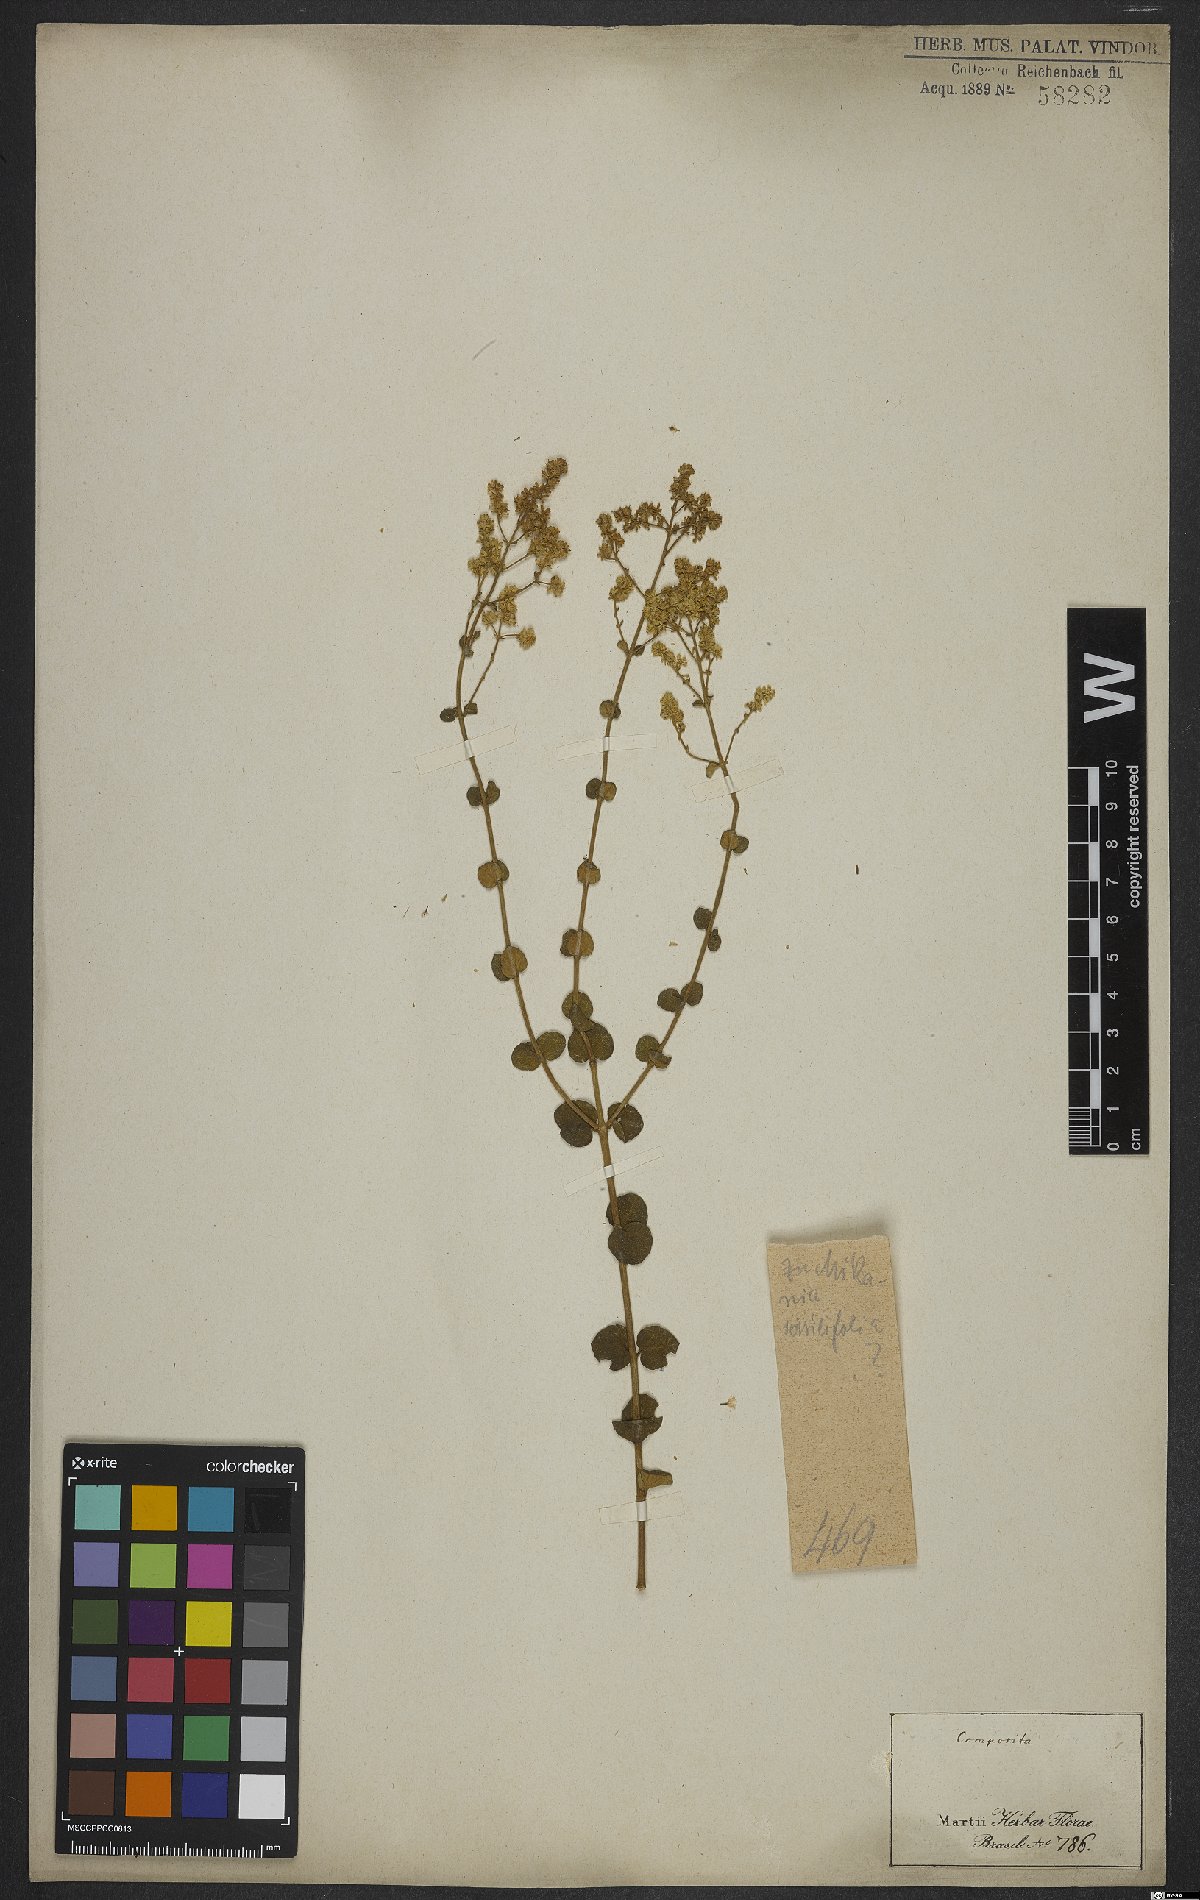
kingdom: Plantae
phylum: Tracheophyta
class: Magnoliopsida
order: Asterales
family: Asteraceae
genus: Mikania
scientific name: Mikania sessilifolia
